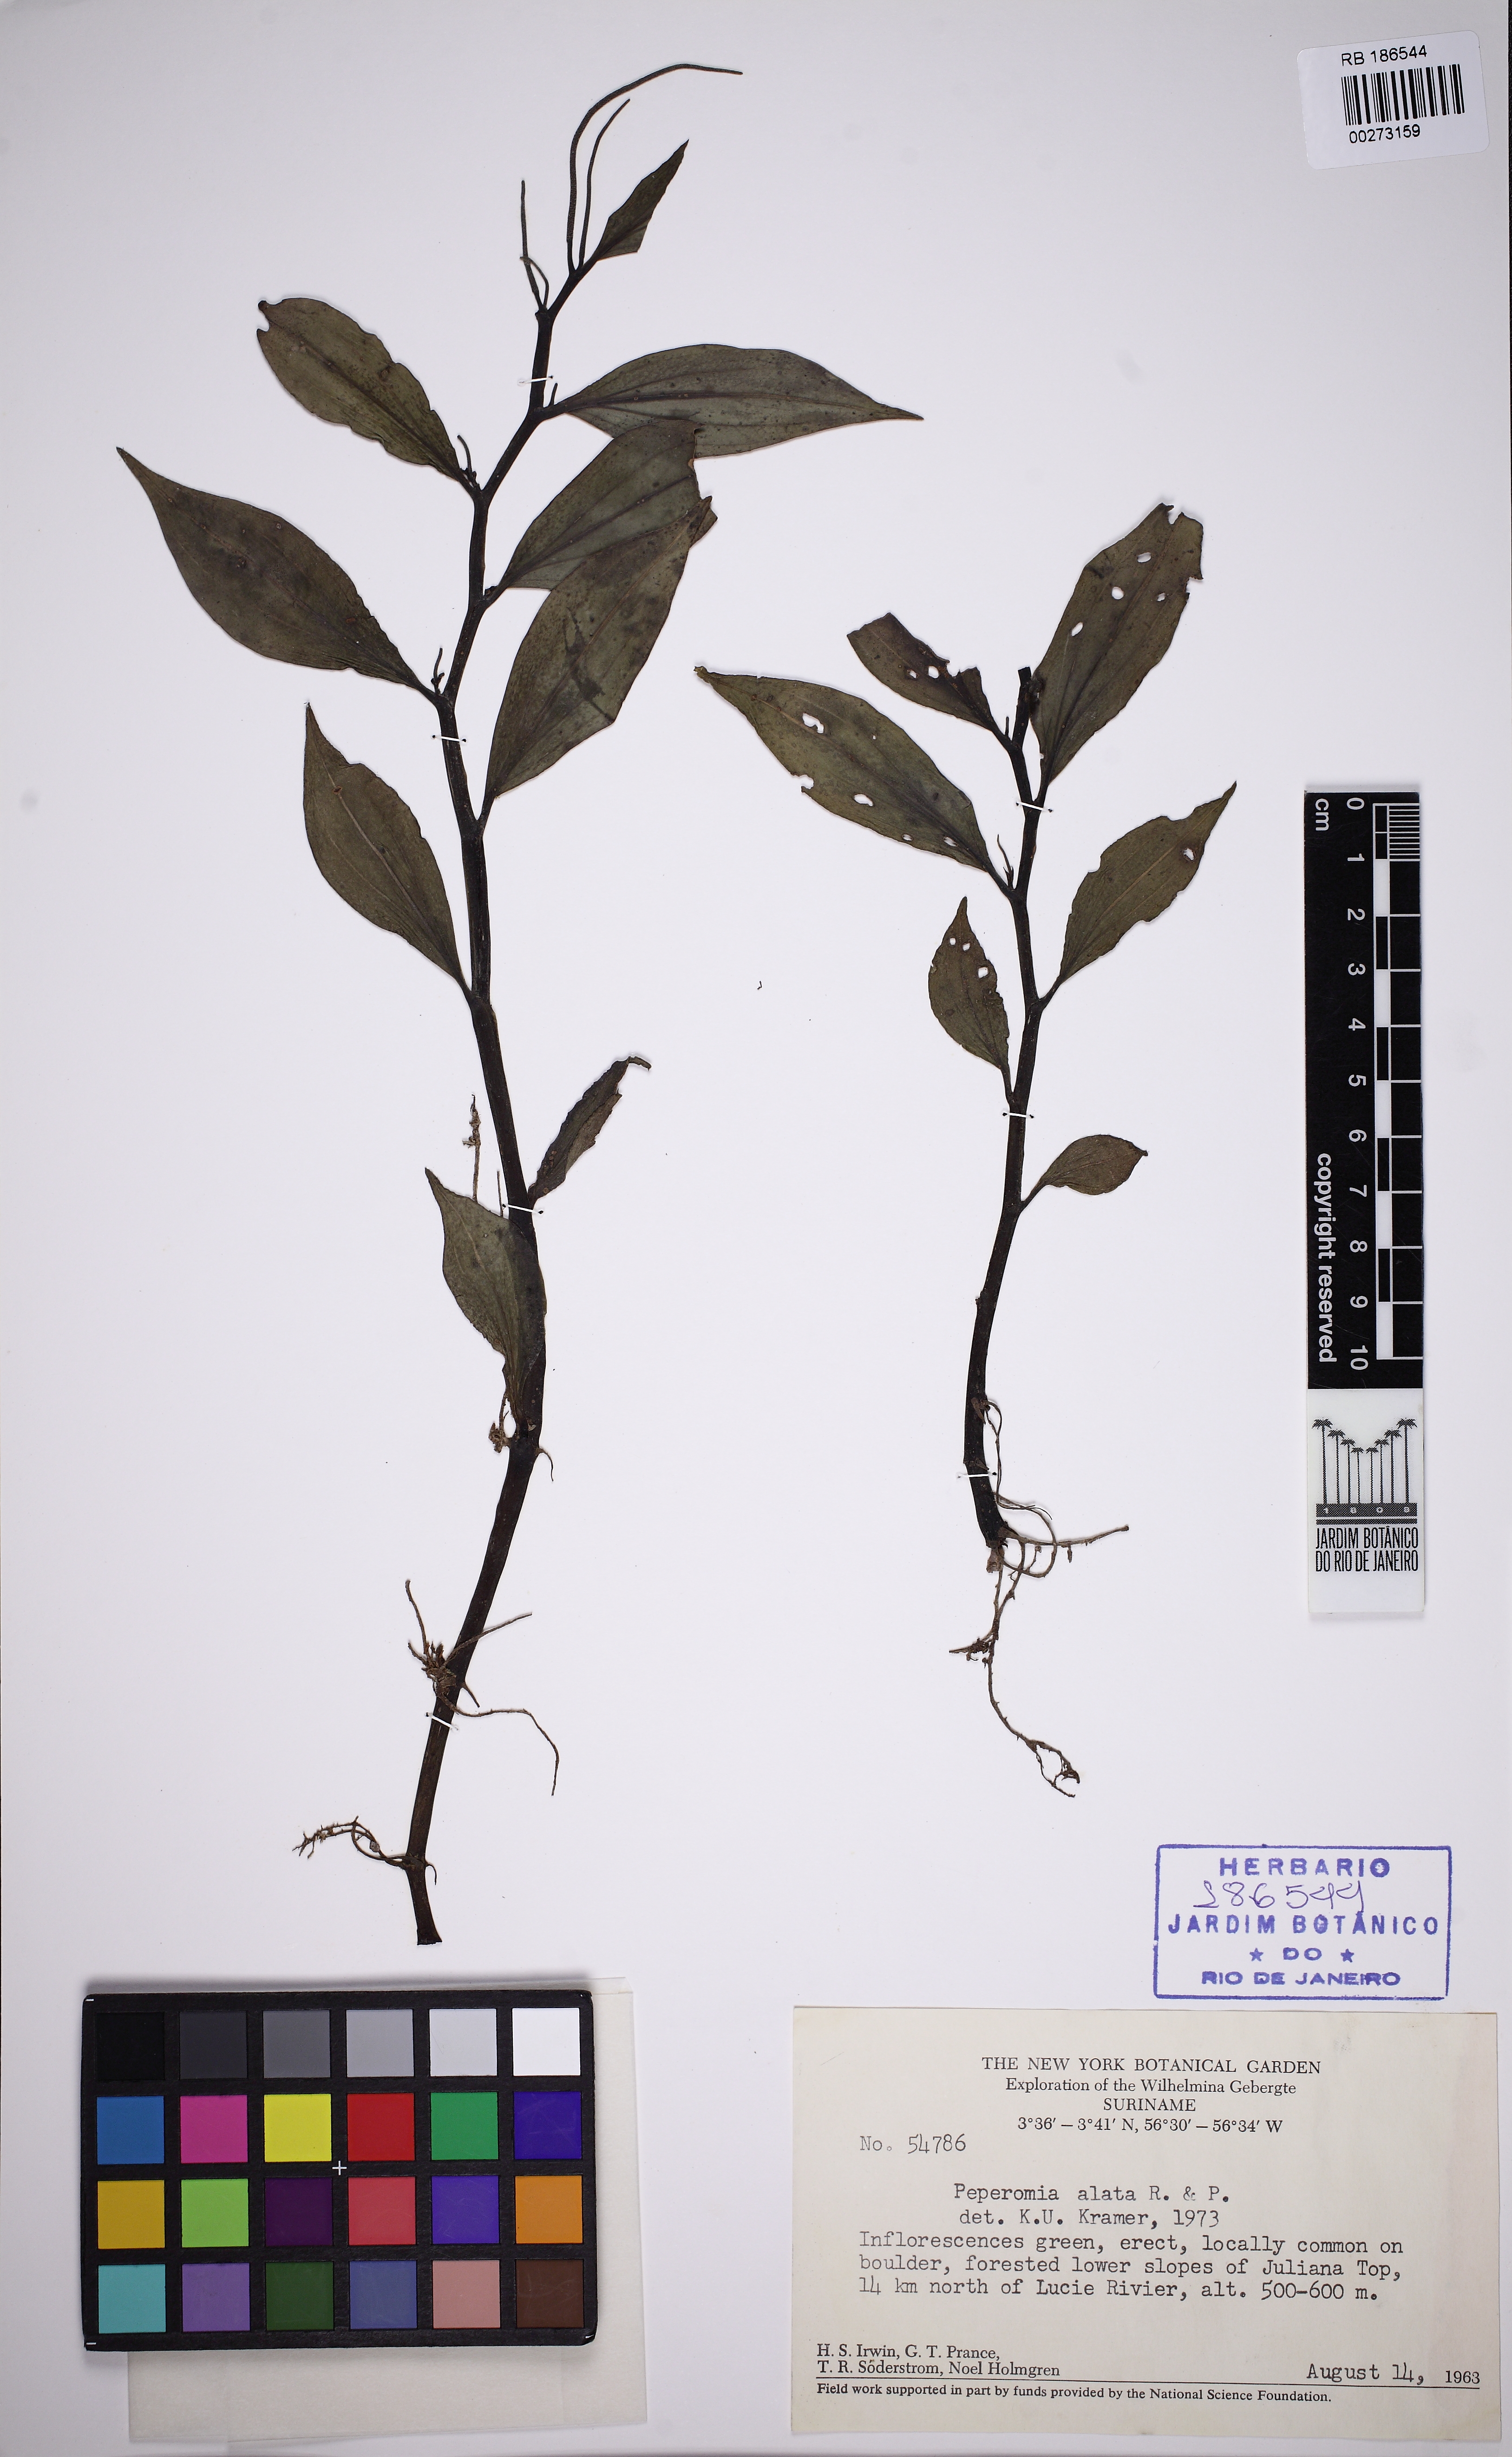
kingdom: Plantae
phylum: Tracheophyta
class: Magnoliopsida
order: Piperales
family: Piperaceae
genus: Peperomia
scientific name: Peperomia alata
